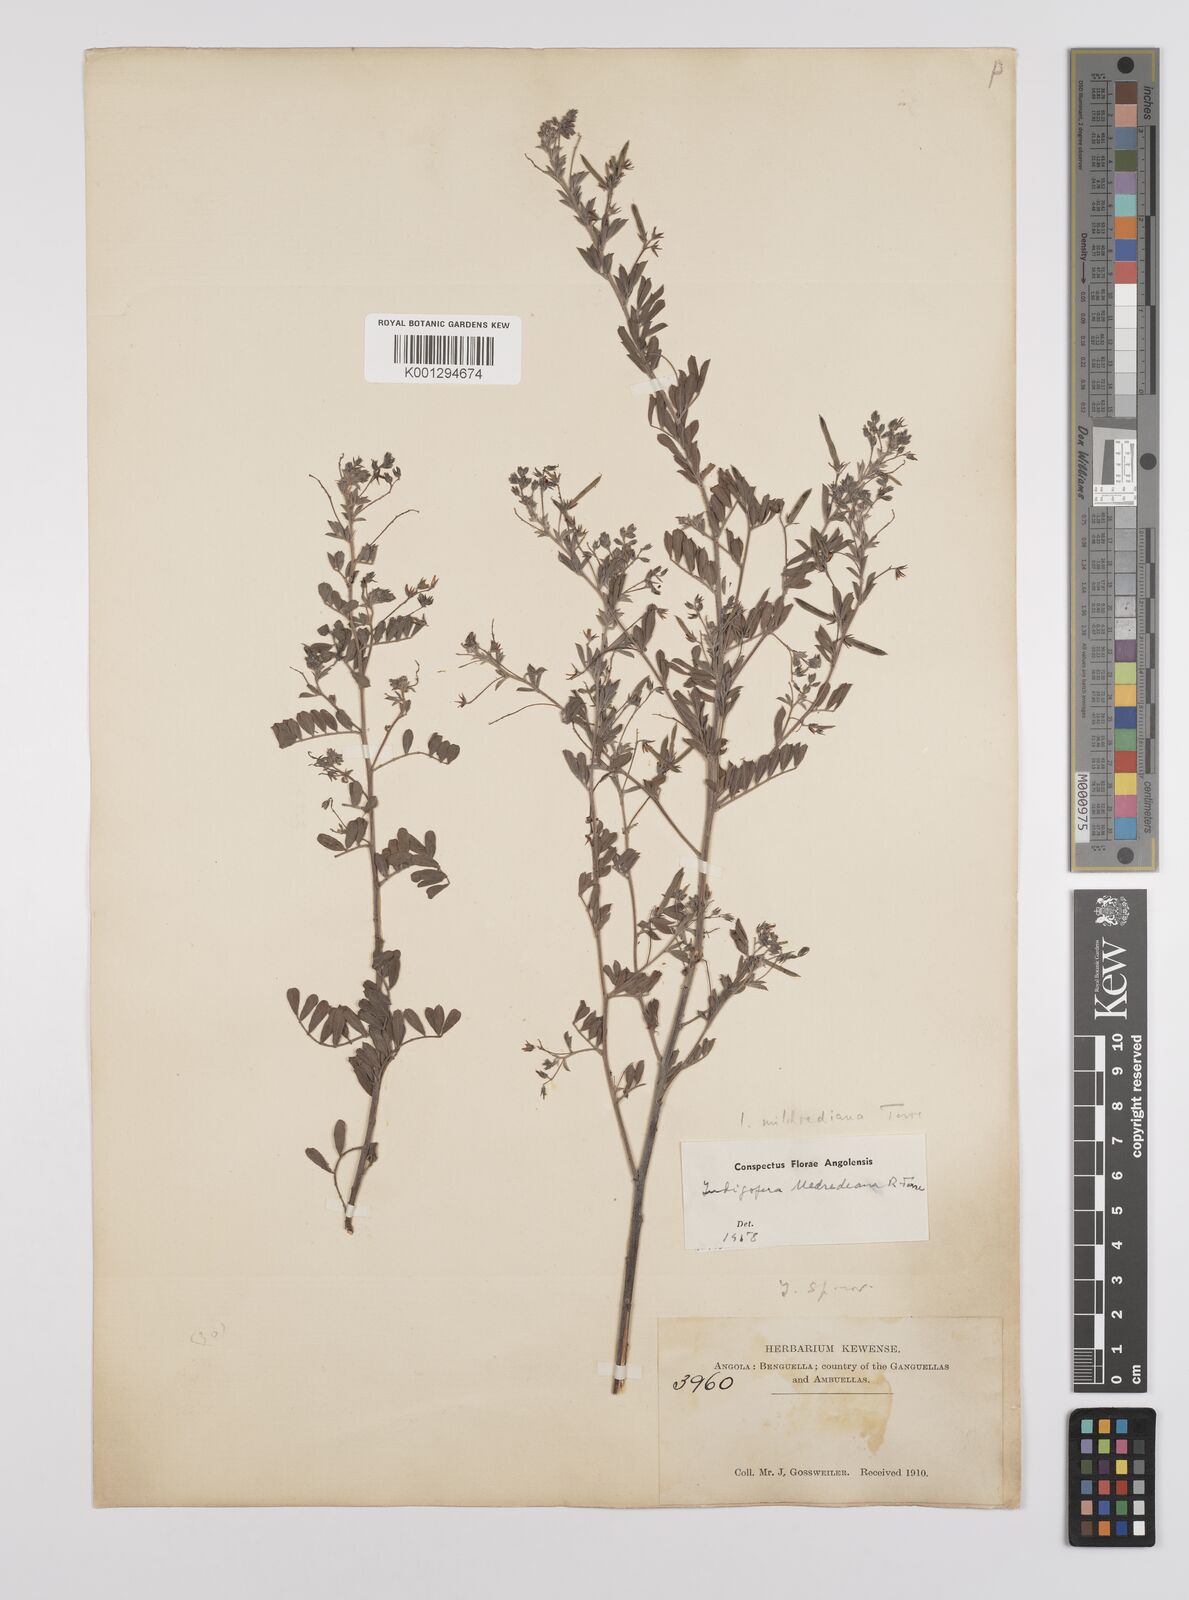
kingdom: Plantae
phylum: Tracheophyta
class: Magnoliopsida
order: Fabales
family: Fabaceae
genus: Indigofera
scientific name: Indigofera mildrediana
